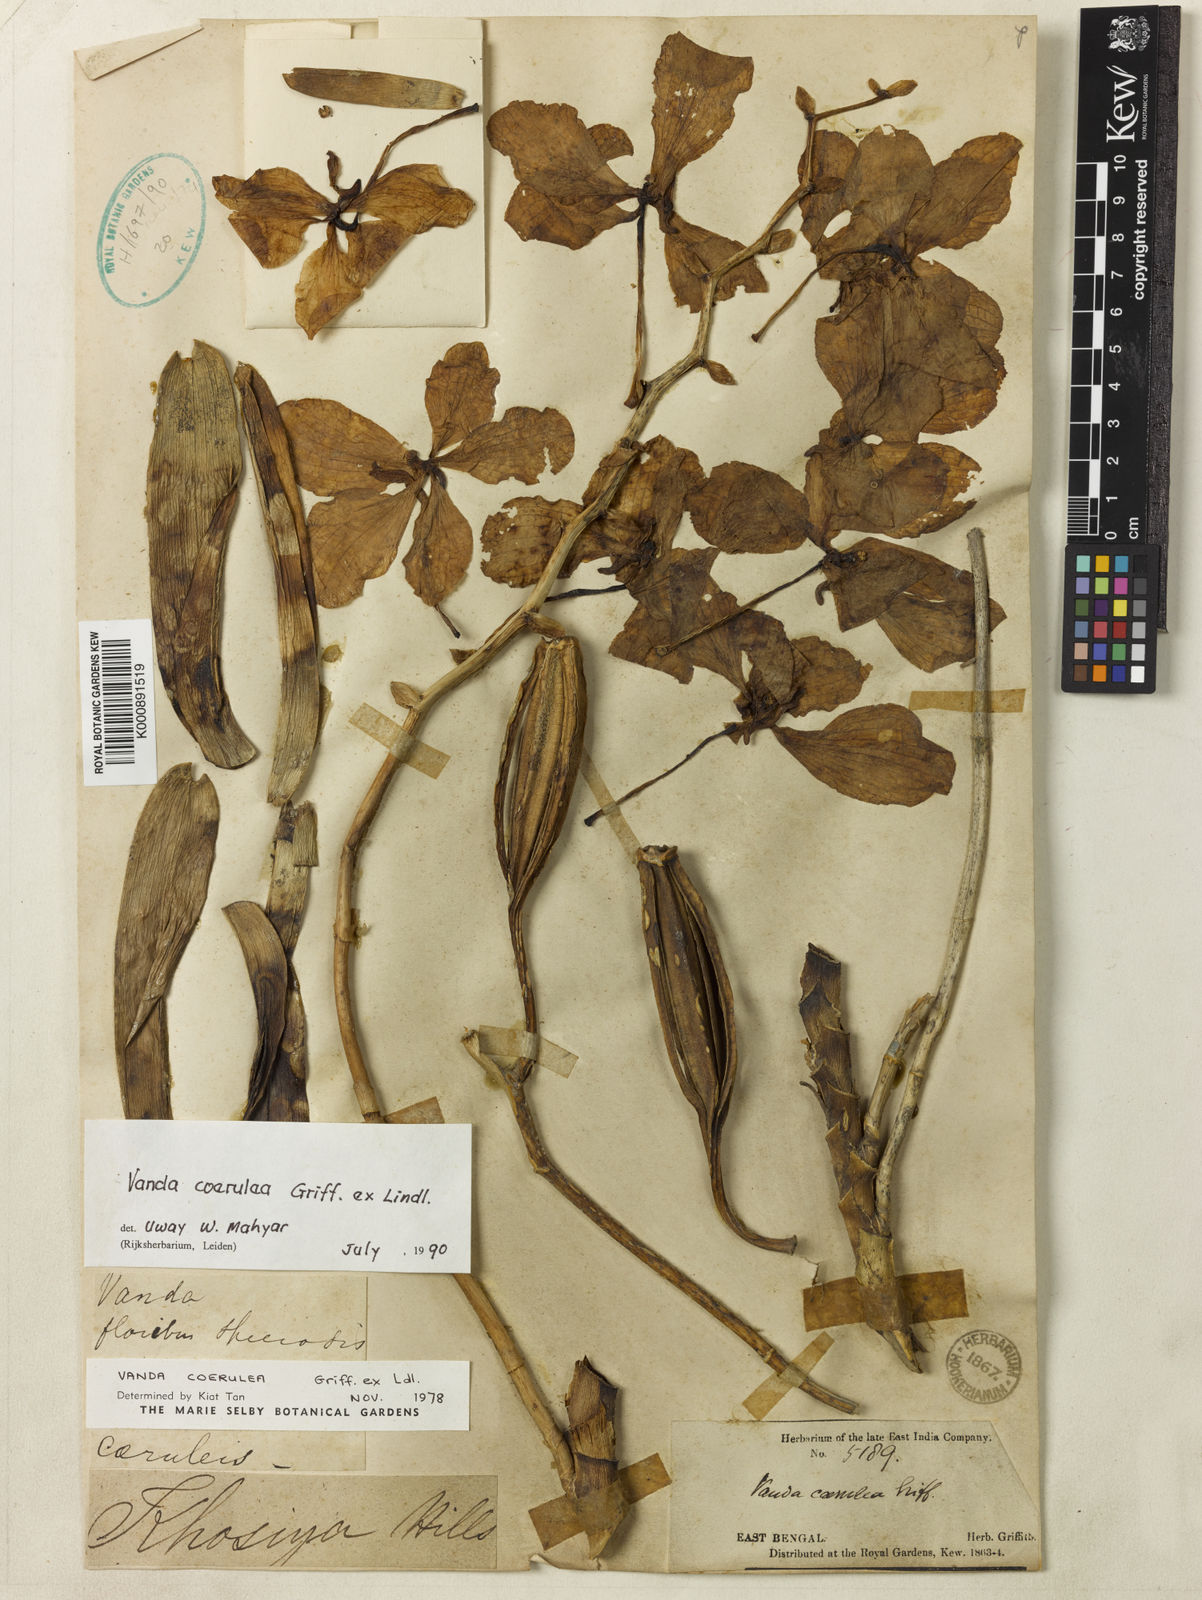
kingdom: Plantae
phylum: Tracheophyta
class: Liliopsida
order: Asparagales
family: Orchidaceae
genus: Vanda
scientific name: Vanda coerulea
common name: Blue orchid
